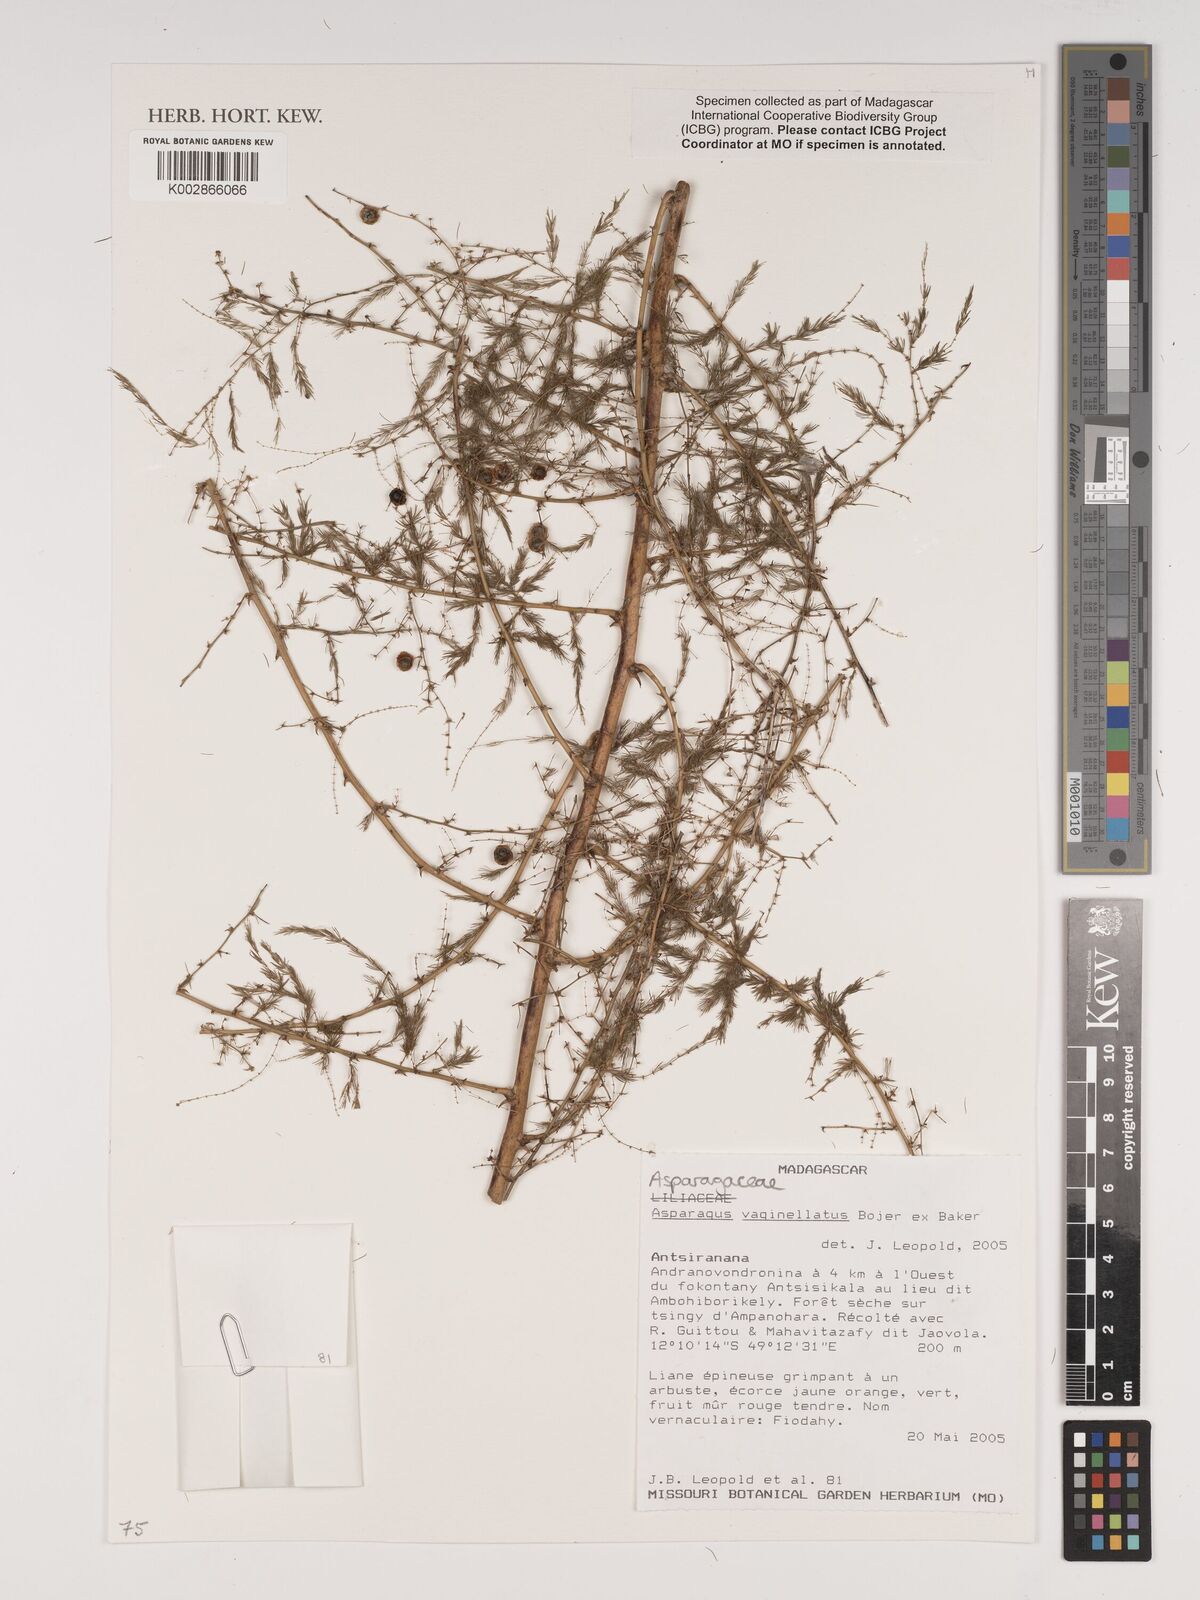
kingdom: Plantae
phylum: Tracheophyta
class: Liliopsida
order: Asparagales
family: Asparagaceae
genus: Asparagus
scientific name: Asparagus vaginellatus
